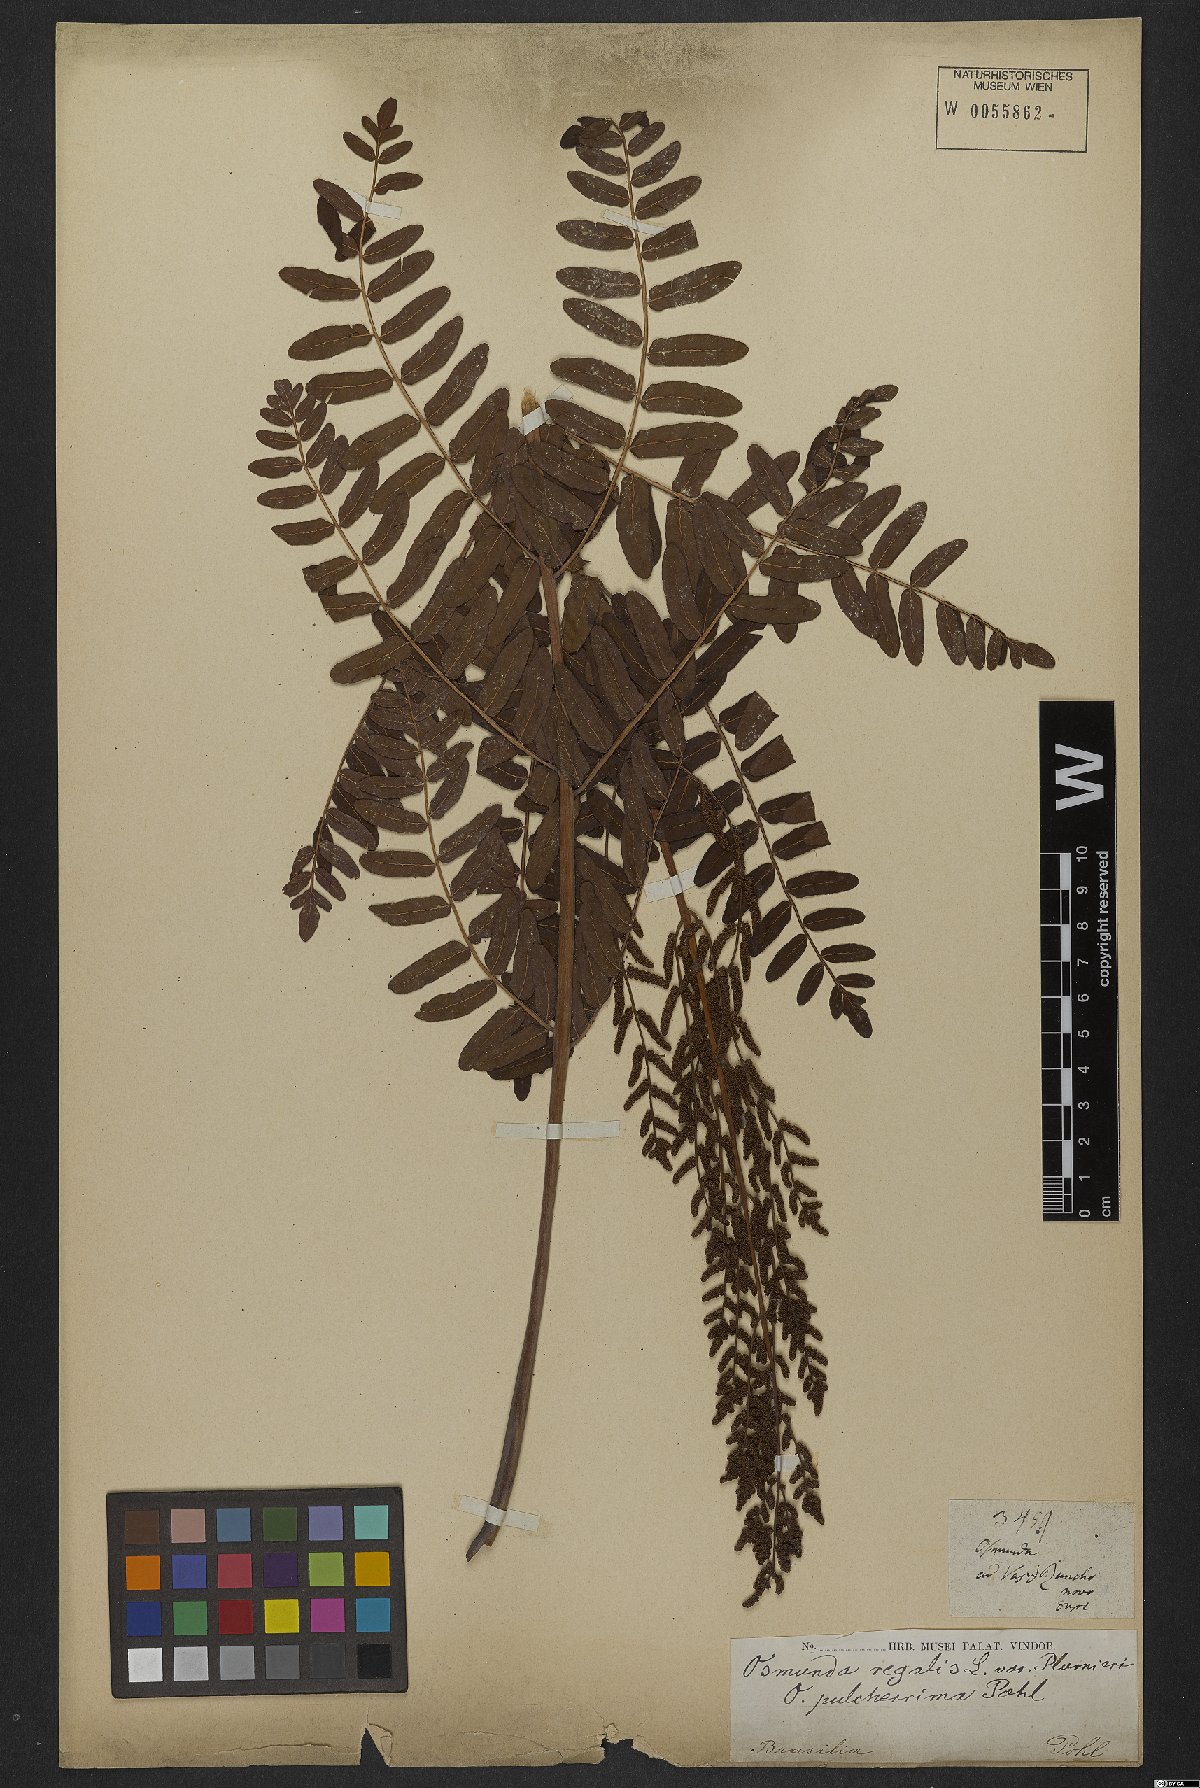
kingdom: Plantae
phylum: Tracheophyta
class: Polypodiopsida
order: Osmundales
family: Osmundaceae
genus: Osmunda
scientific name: Osmunda regalis
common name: Royal fern
